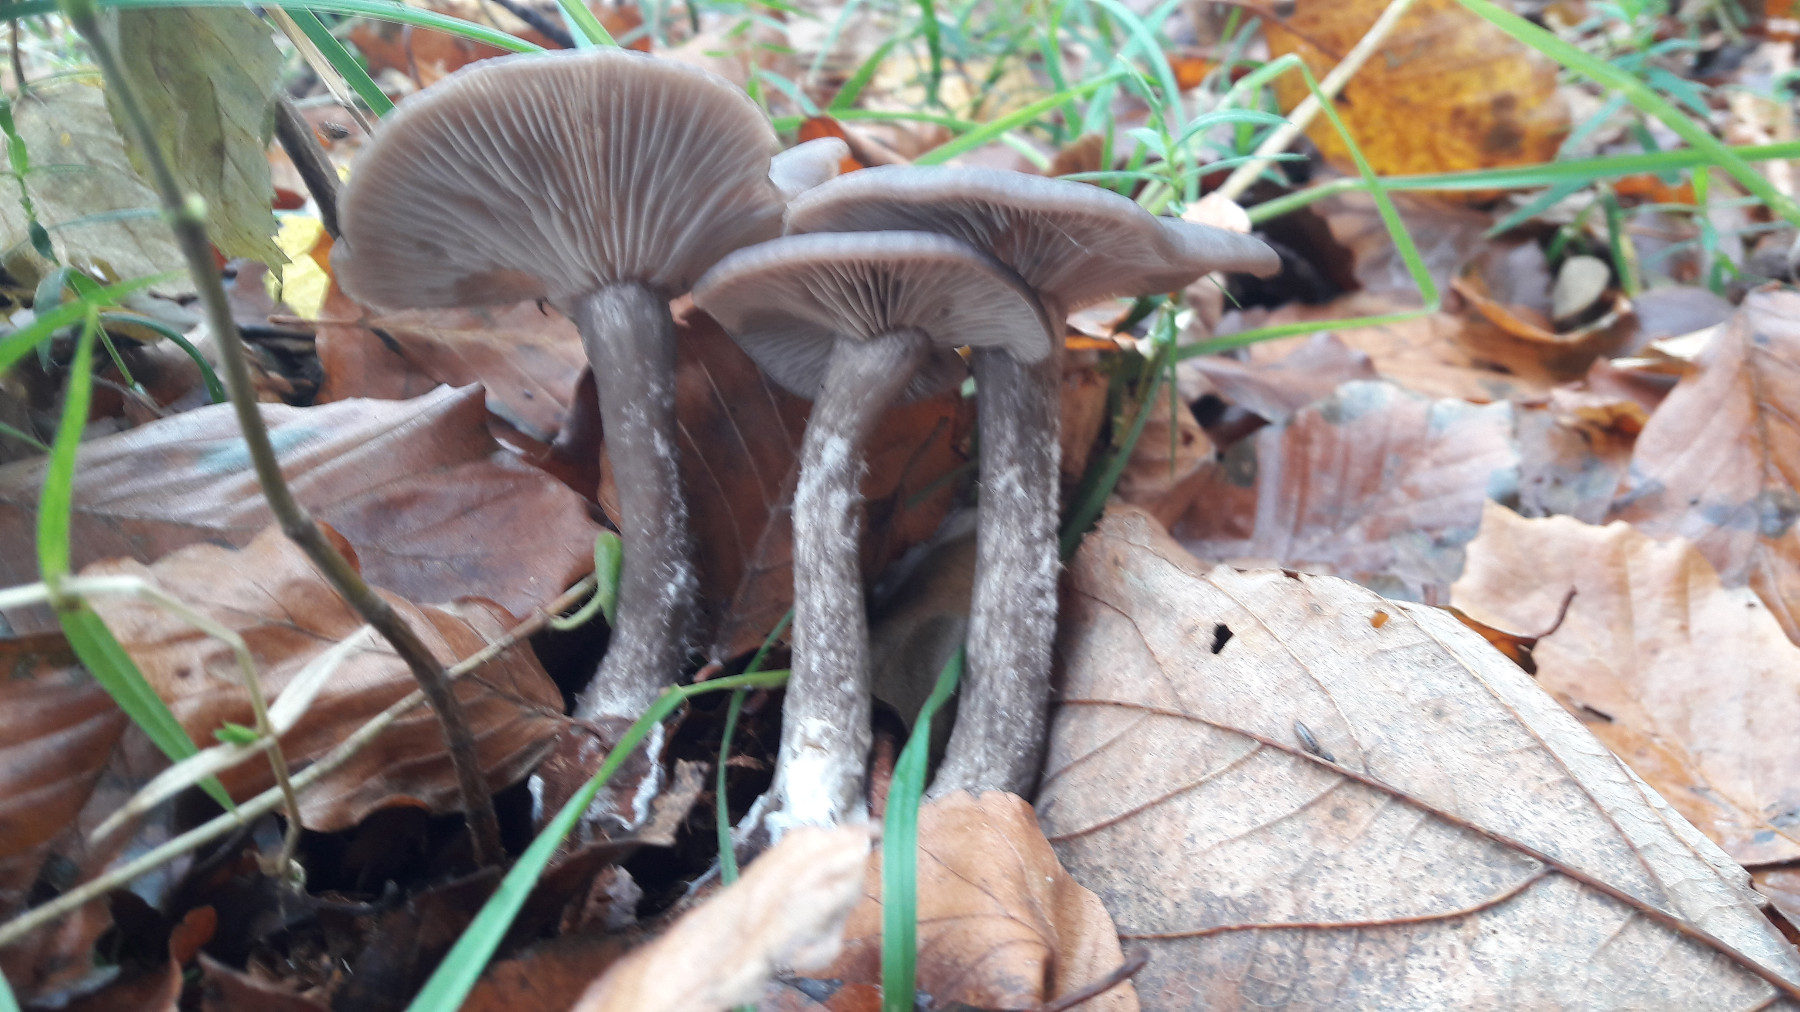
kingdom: Fungi
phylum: Basidiomycota
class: Agaricomycetes
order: Agaricales
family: Pseudoclitocybaceae
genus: Pseudoclitocybe
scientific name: Pseudoclitocybe cyathiformis
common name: almindelig bægertragthat
